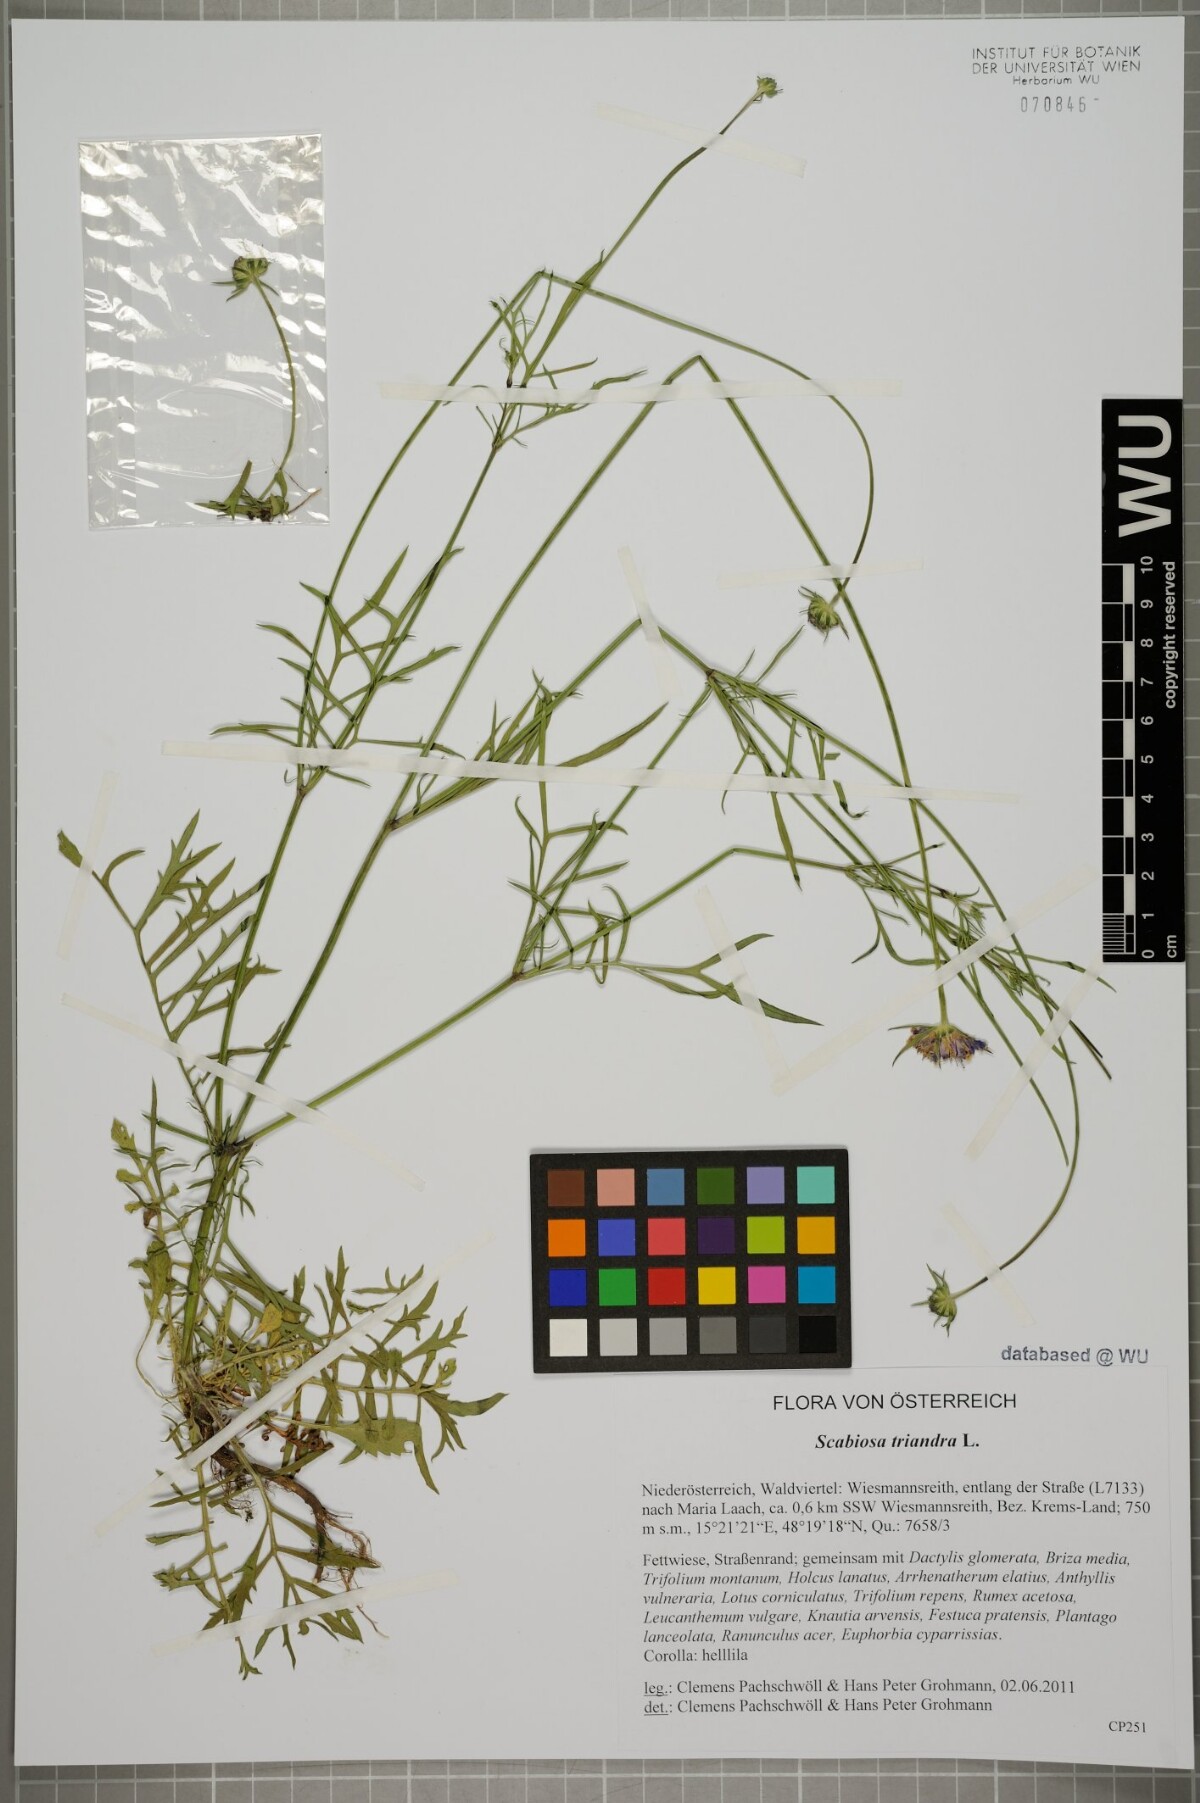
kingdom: Plantae
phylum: Tracheophyta
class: Magnoliopsida
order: Dipsacales
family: Caprifoliaceae
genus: Scabiosa
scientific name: Scabiosa triandra
